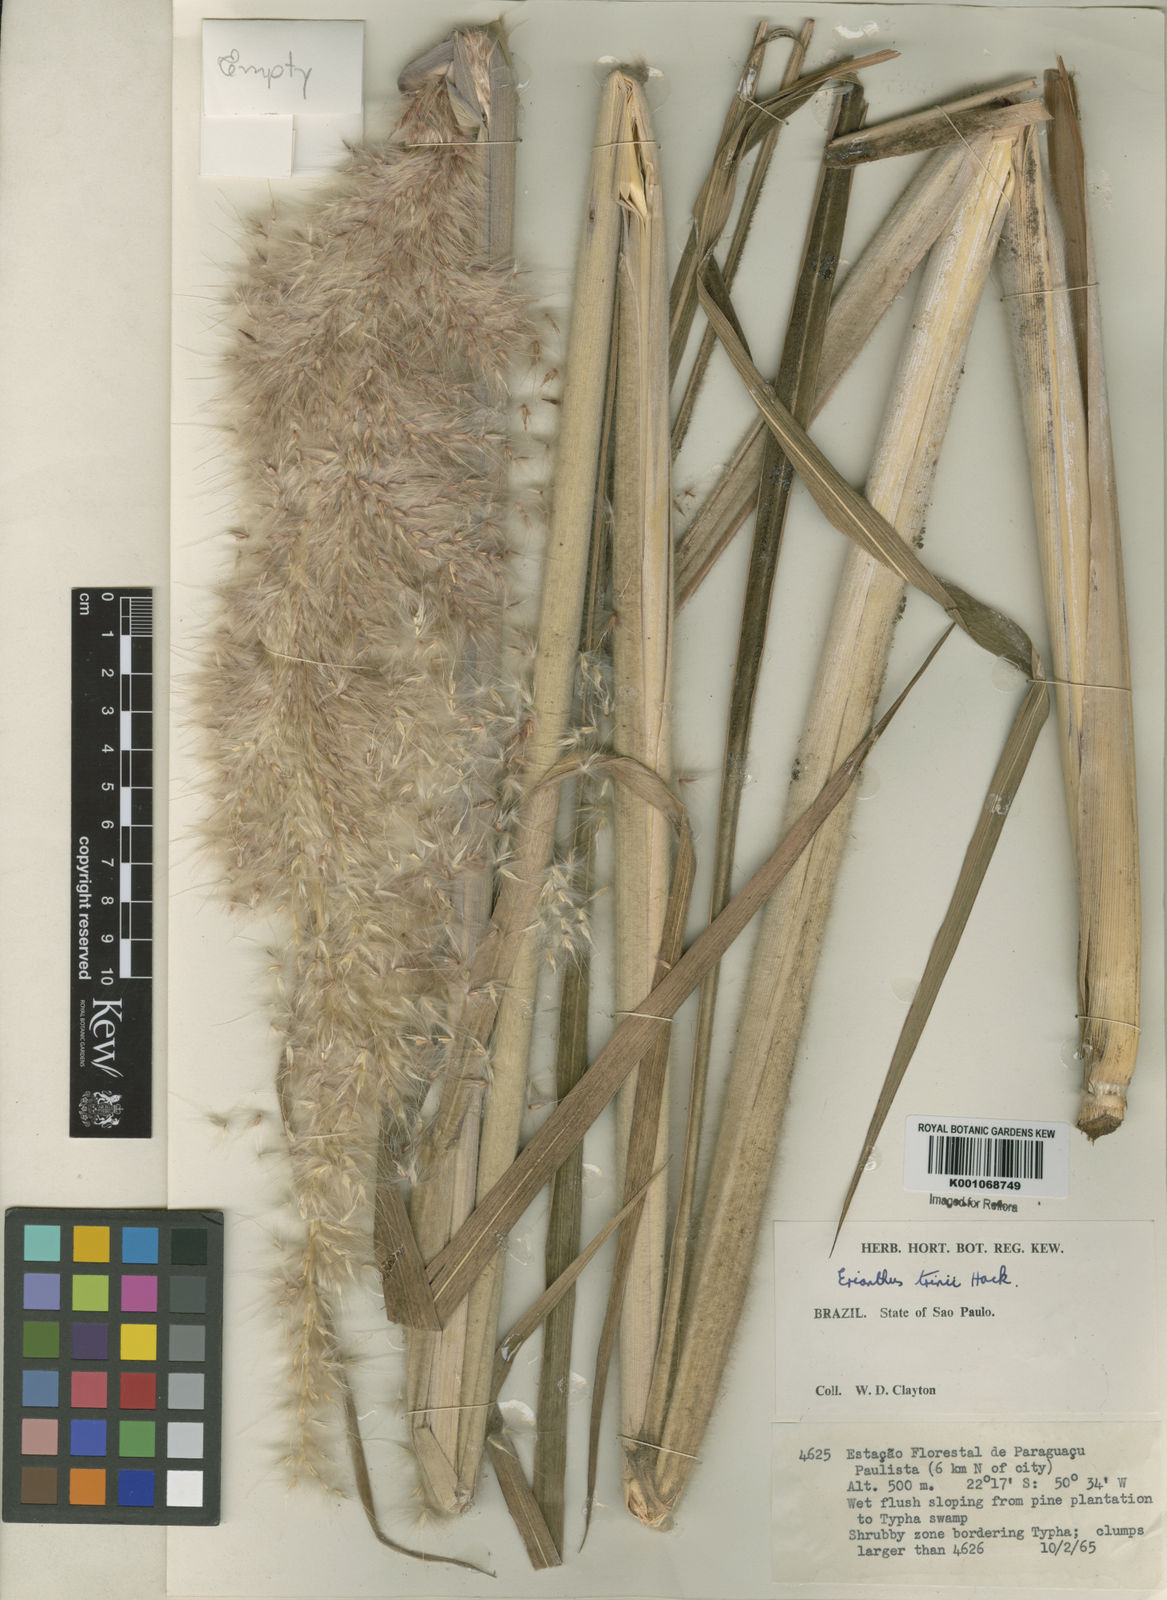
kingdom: Plantae
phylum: Tracheophyta
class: Liliopsida
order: Poales
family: Poaceae
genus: Erianthus
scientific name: Erianthus trinii
